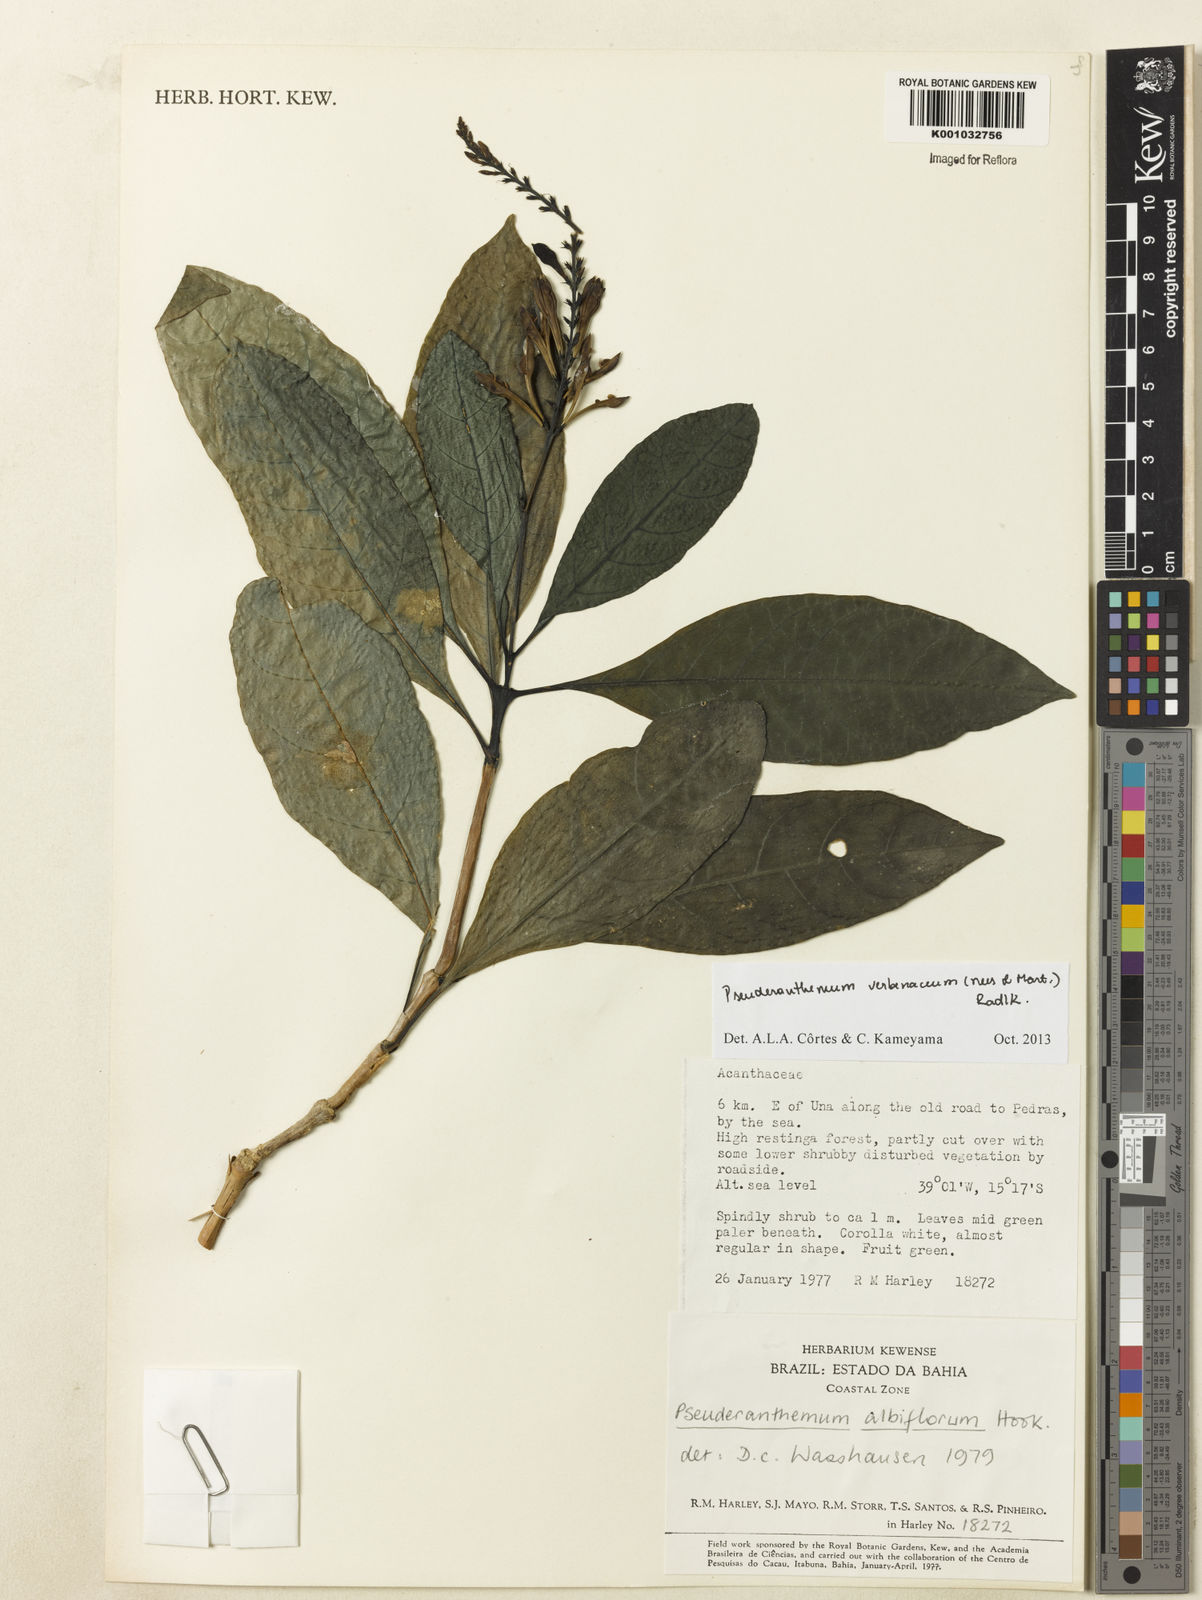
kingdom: Plantae
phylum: Tracheophyta
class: Magnoliopsida
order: Lamiales
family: Acanthaceae
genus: Pseuderanthemum
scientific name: Pseuderanthemum verbenaceum
